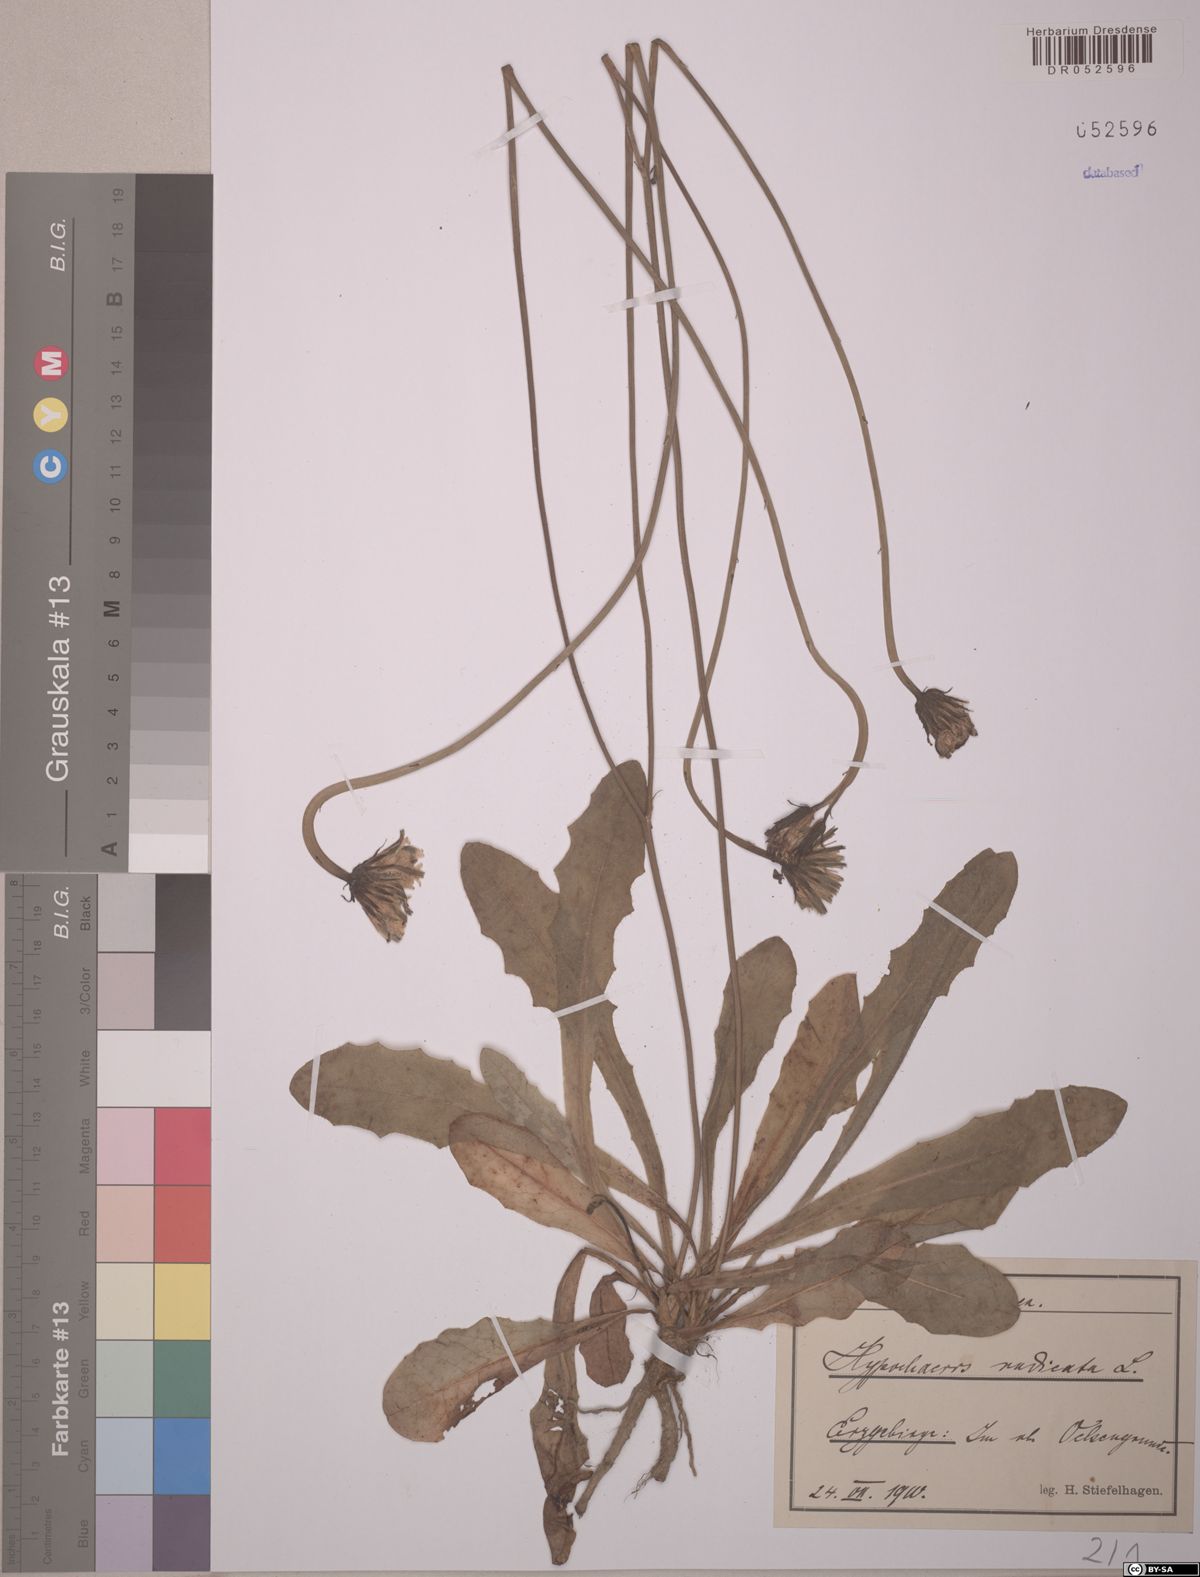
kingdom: Plantae
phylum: Tracheophyta
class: Magnoliopsida
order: Asterales
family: Asteraceae
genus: Hypochaeris
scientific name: Hypochaeris radicata
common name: Flatweed
